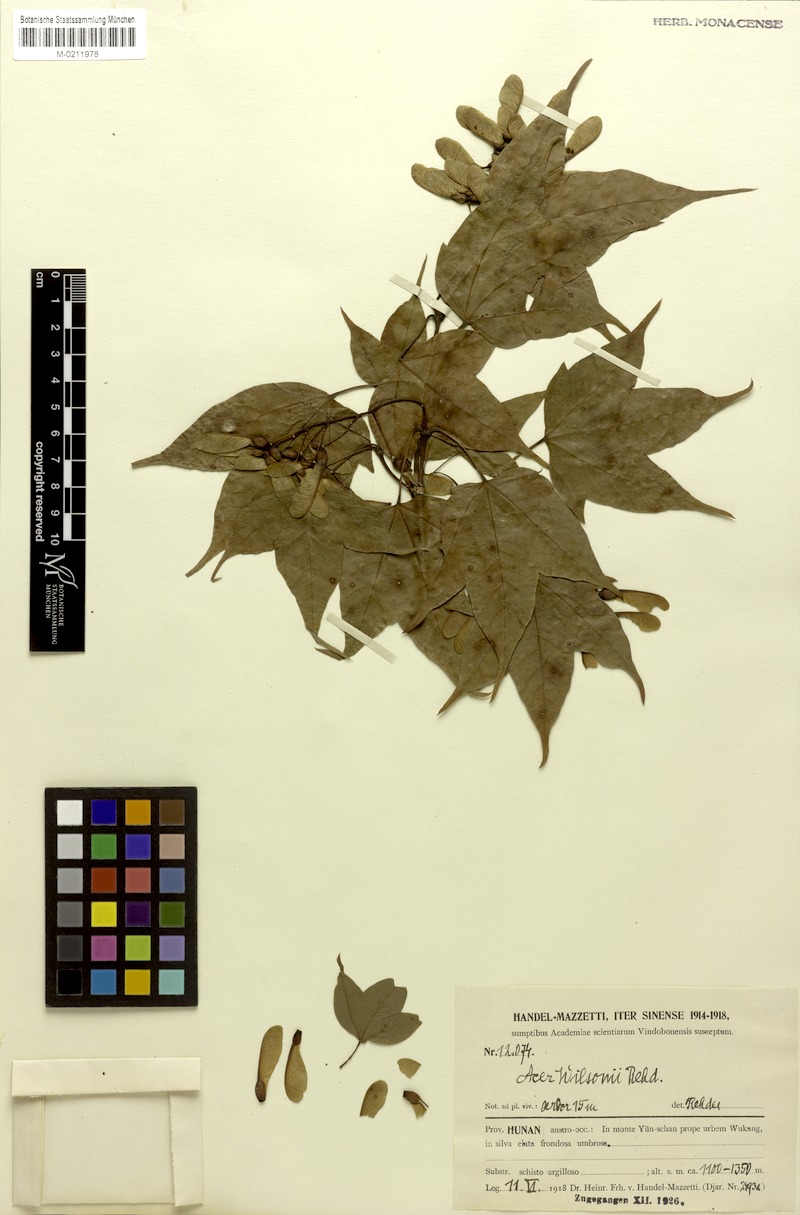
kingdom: Plantae
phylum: Tracheophyta
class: Magnoliopsida
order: Sapindales
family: Sapindaceae
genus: Acer
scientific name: Acer wilsonii
